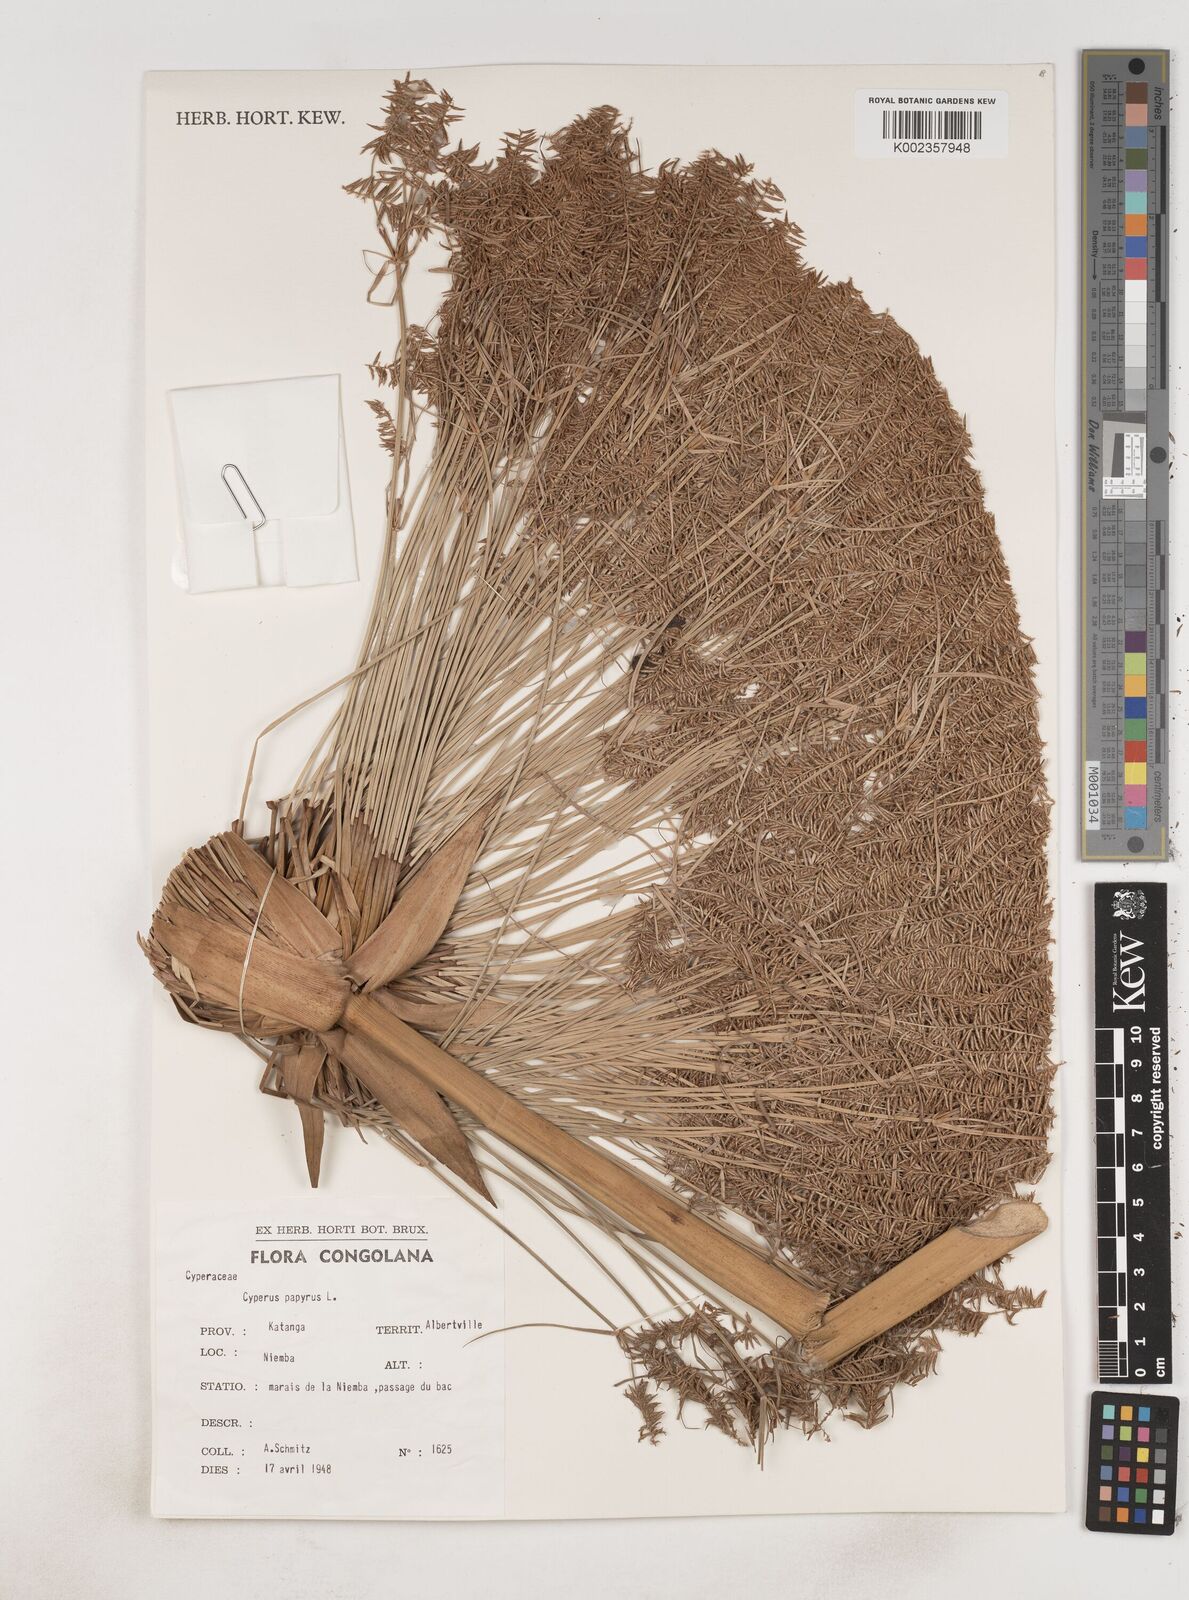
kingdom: Plantae
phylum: Tracheophyta
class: Liliopsida
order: Poales
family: Cyperaceae
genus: Cyperus
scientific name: Cyperus papyrus
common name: Papyrus
